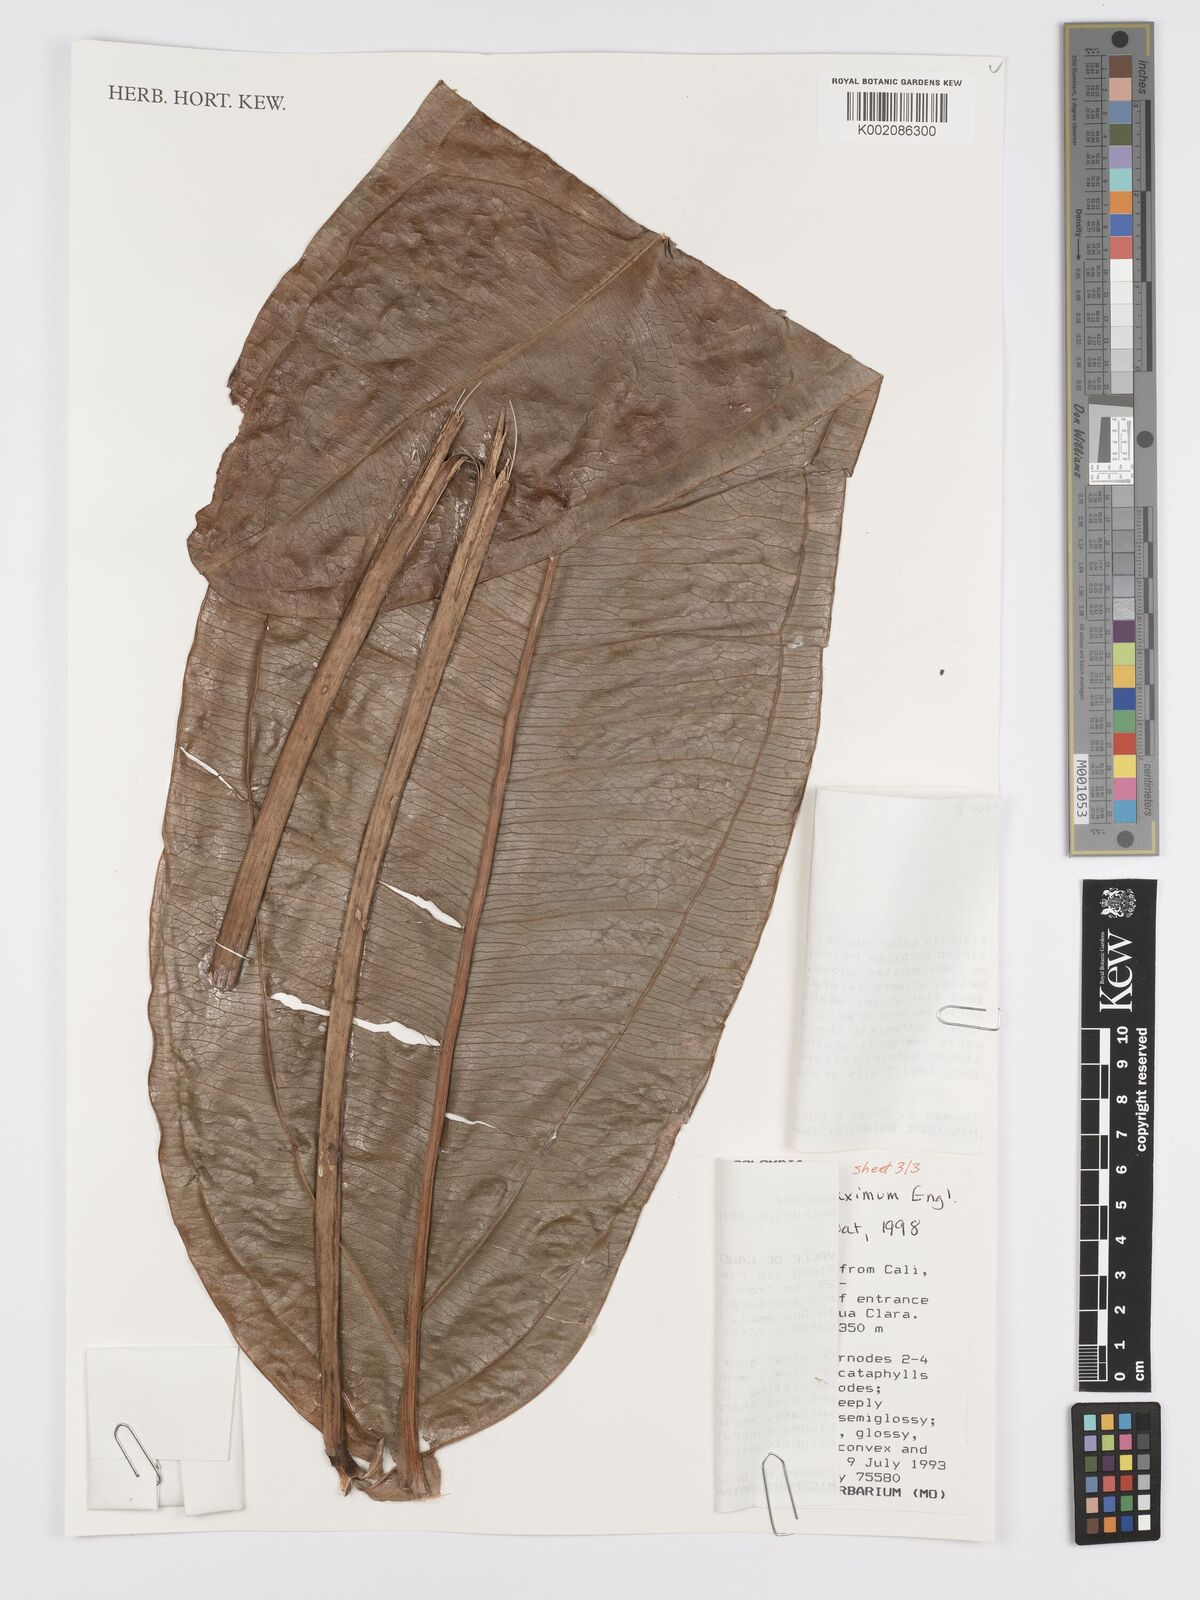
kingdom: Plantae
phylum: Tracheophyta
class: Liliopsida
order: Alismatales
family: Araceae
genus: Anthurium
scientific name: Anthurium jesusii
